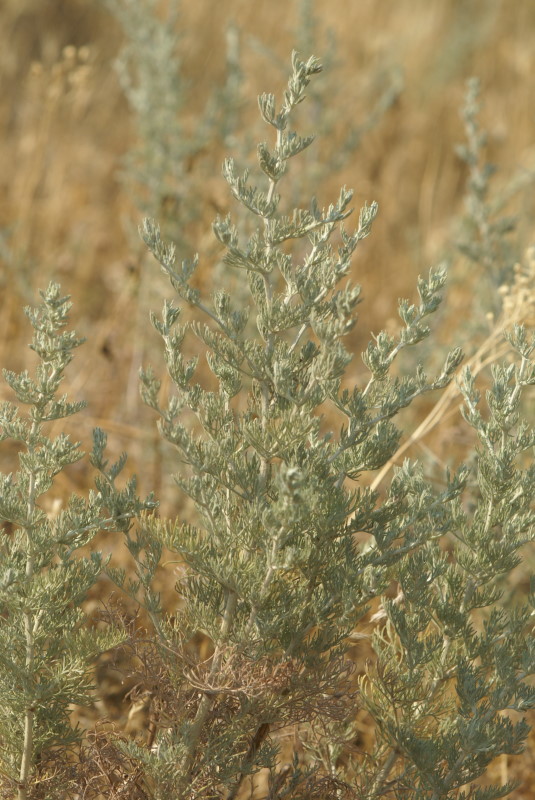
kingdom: Plantae
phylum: Tracheophyta
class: Magnoliopsida
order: Asterales
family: Asteraceae
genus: Artemisia
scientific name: Artemisia
